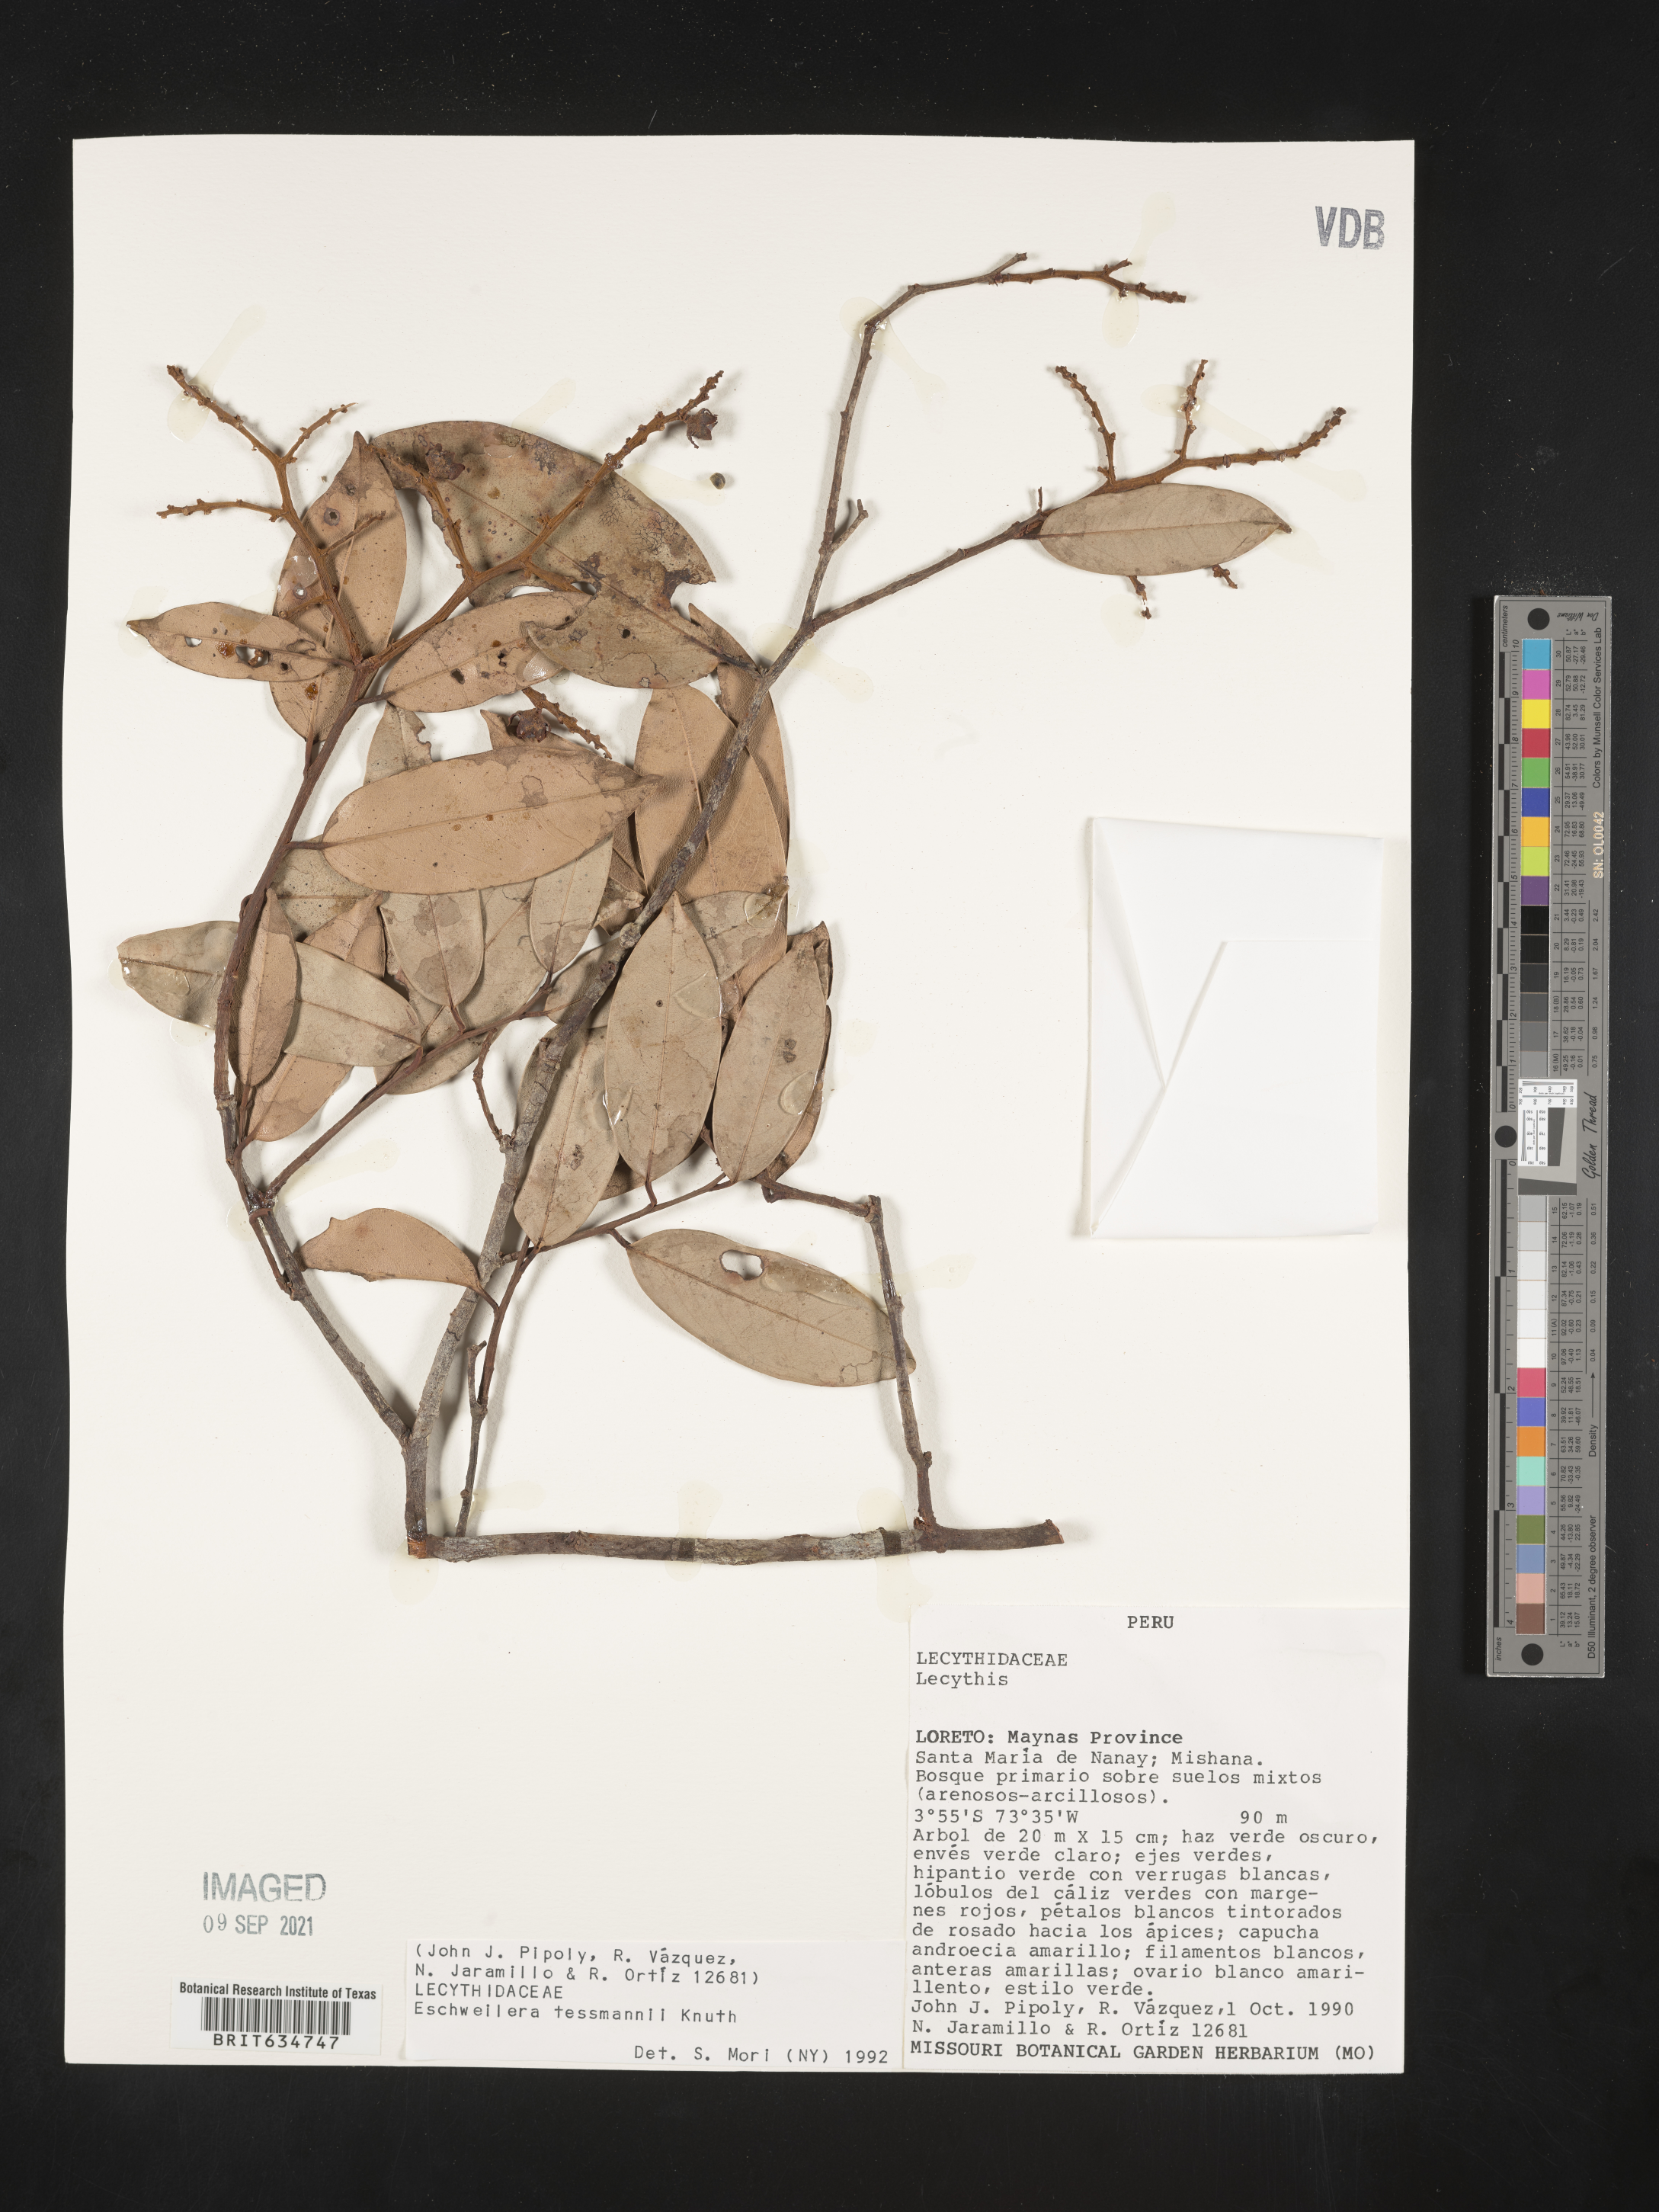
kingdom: Plantae
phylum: Tracheophyta
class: Magnoliopsida
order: Ericales
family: Lecythidaceae
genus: Eschweilera
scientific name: Eschweilera
